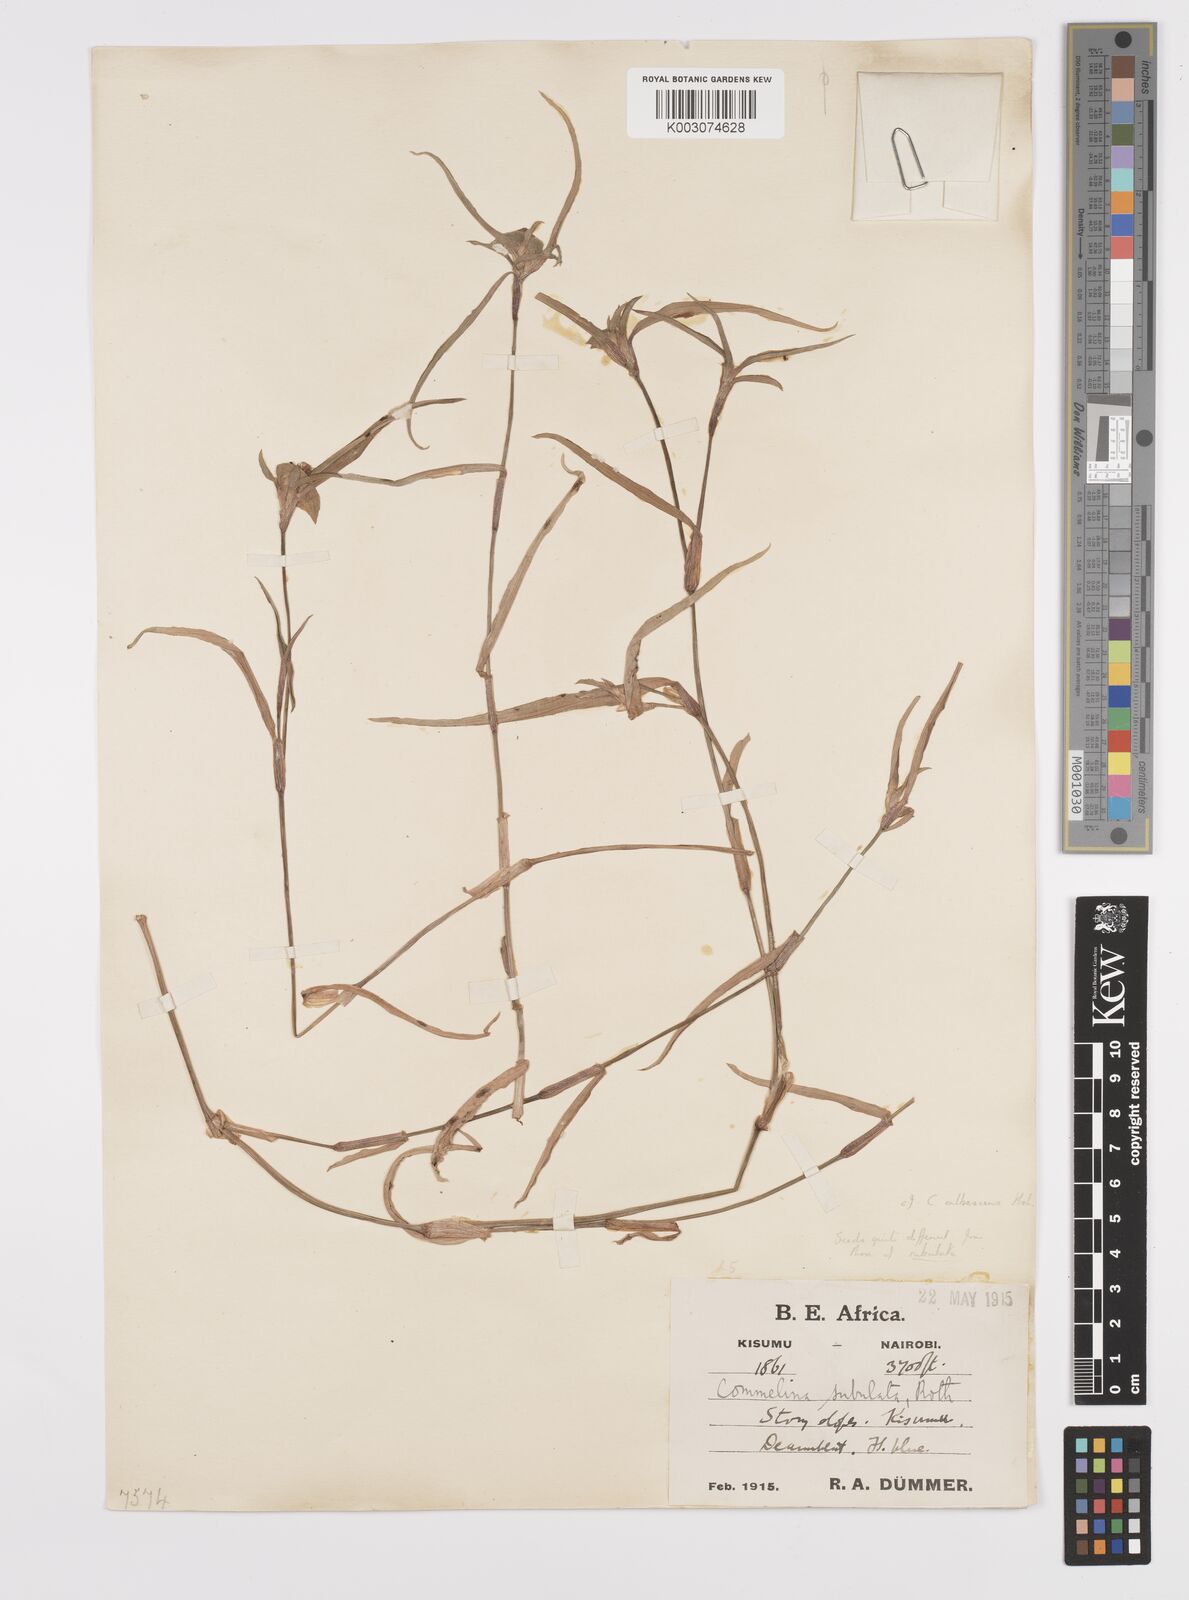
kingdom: Plantae
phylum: Tracheophyta
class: Liliopsida
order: Commelinales
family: Commelinaceae
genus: Commelina
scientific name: Commelina erecta
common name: Blousel blommetjie
